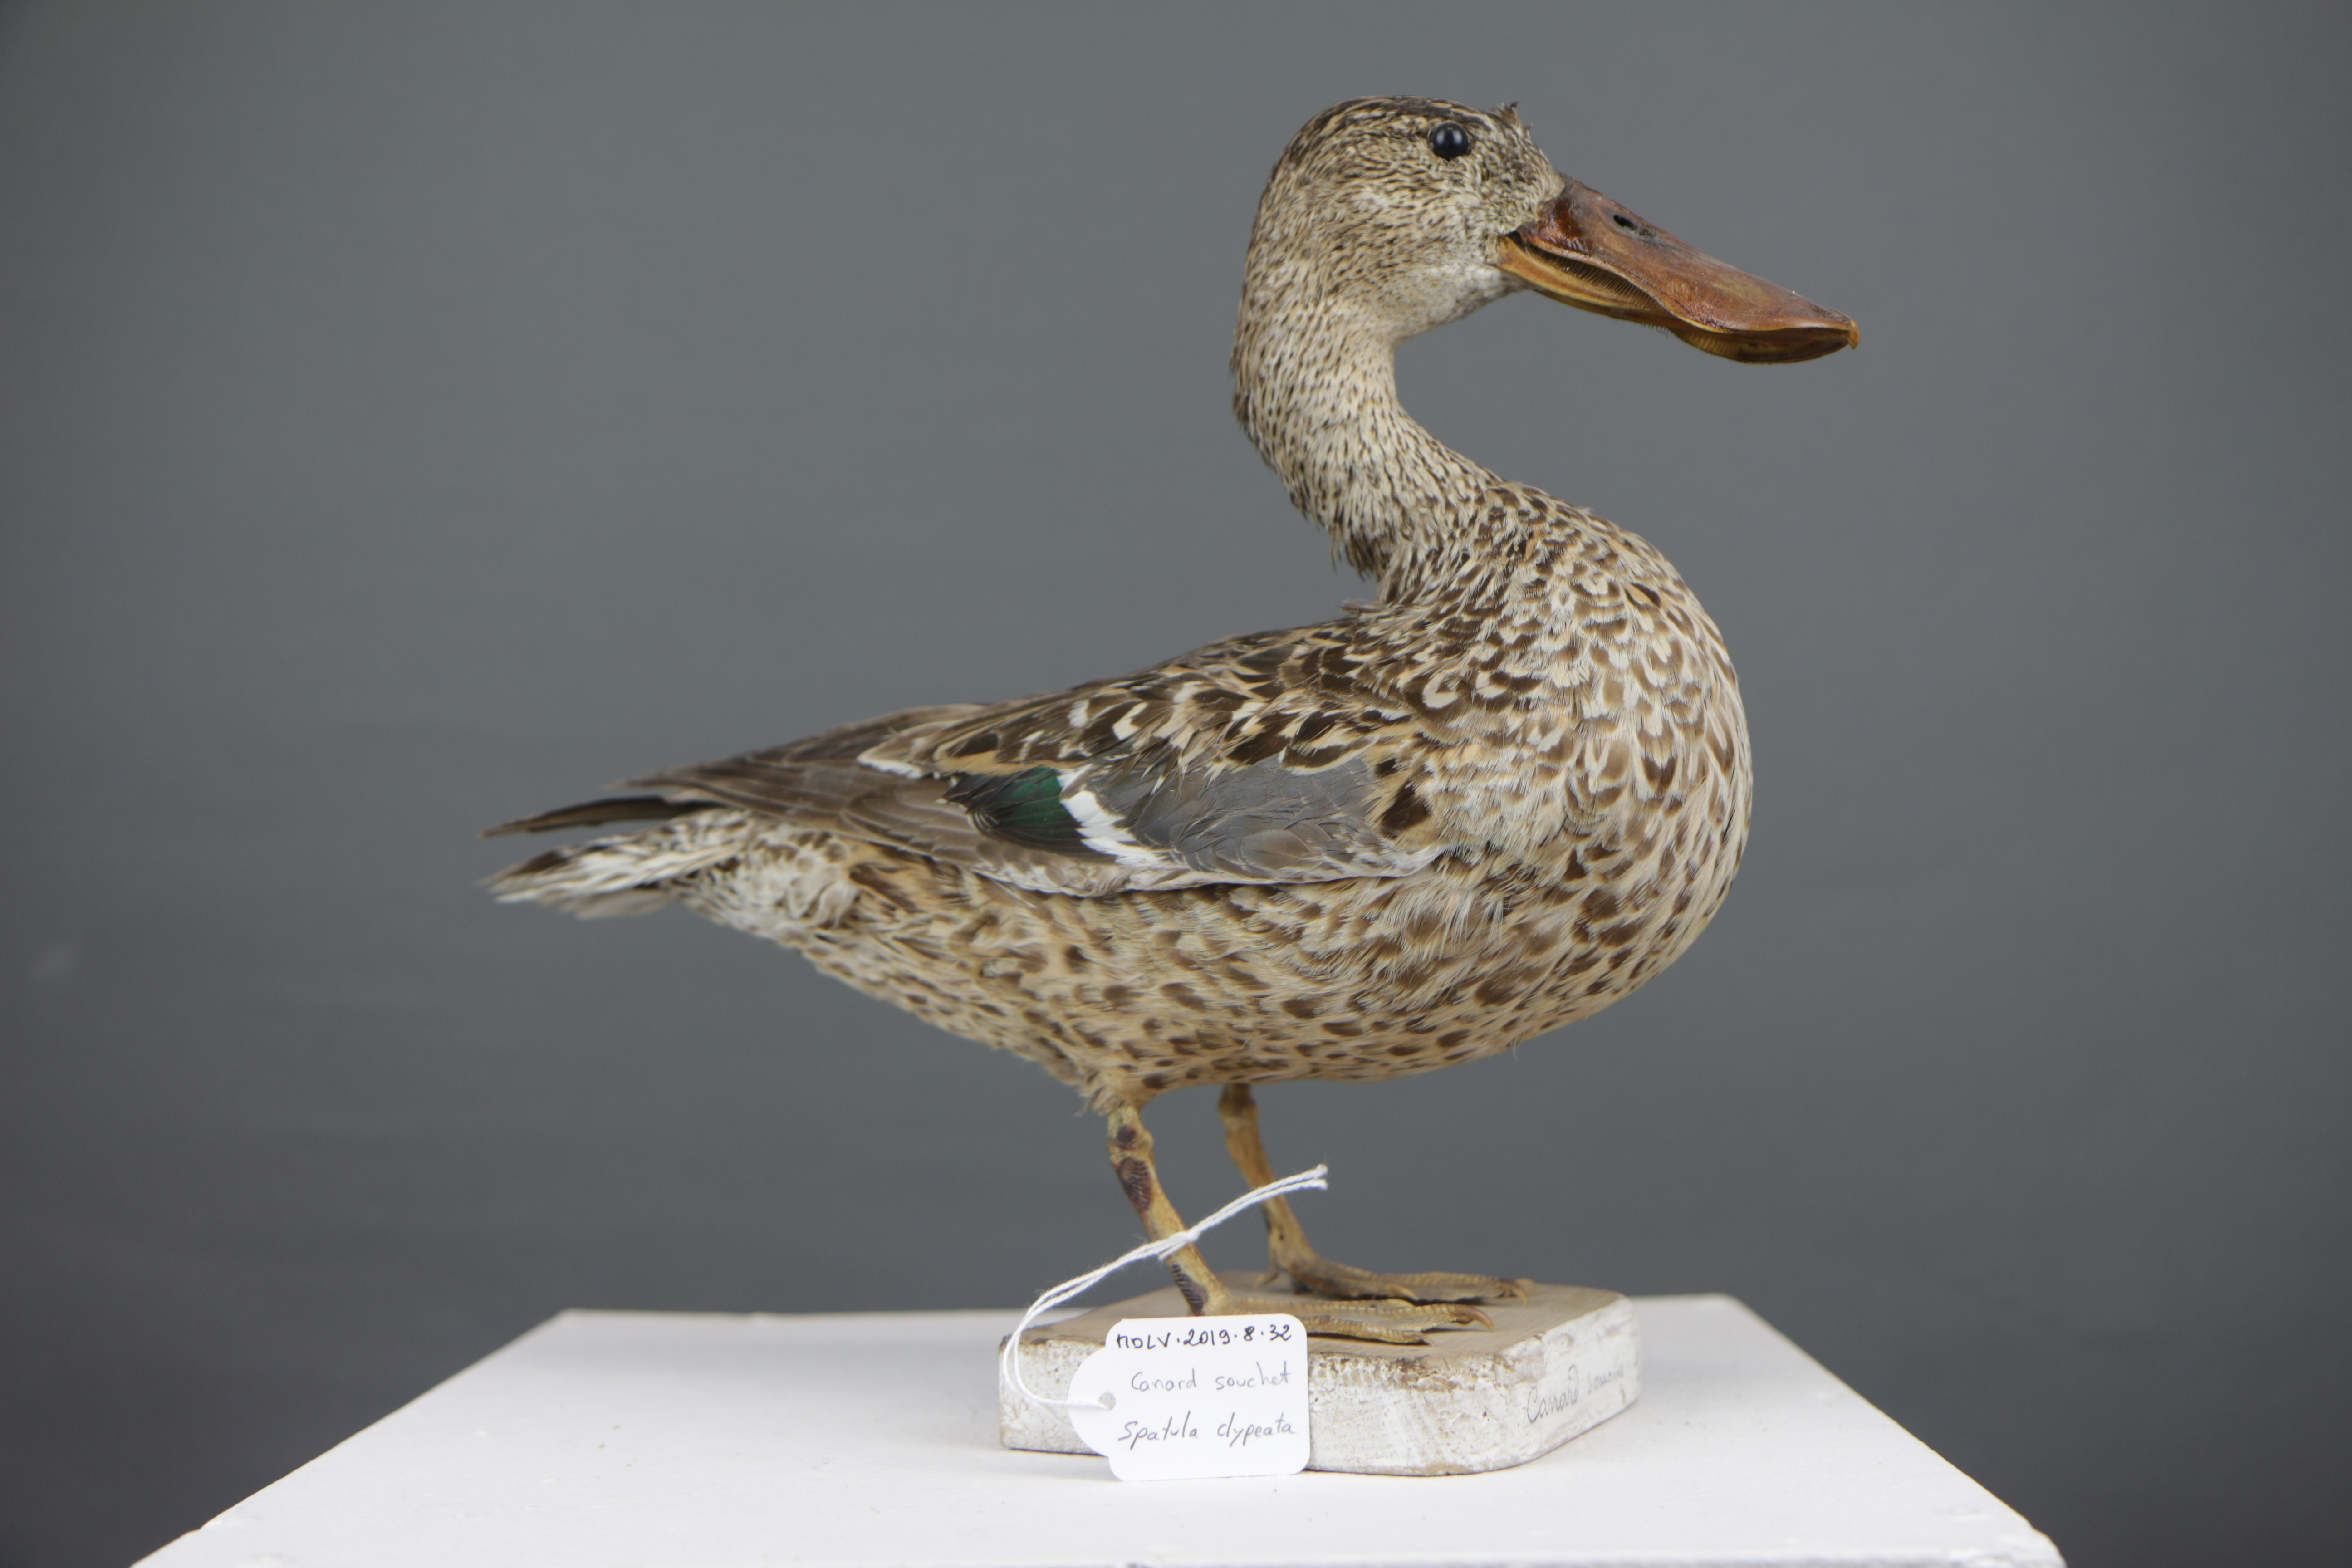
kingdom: Animalia
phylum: Chordata
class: Aves
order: Anseriformes
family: Anatidae
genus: Spatula
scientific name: Spatula clypeata
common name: Northern shoveler
